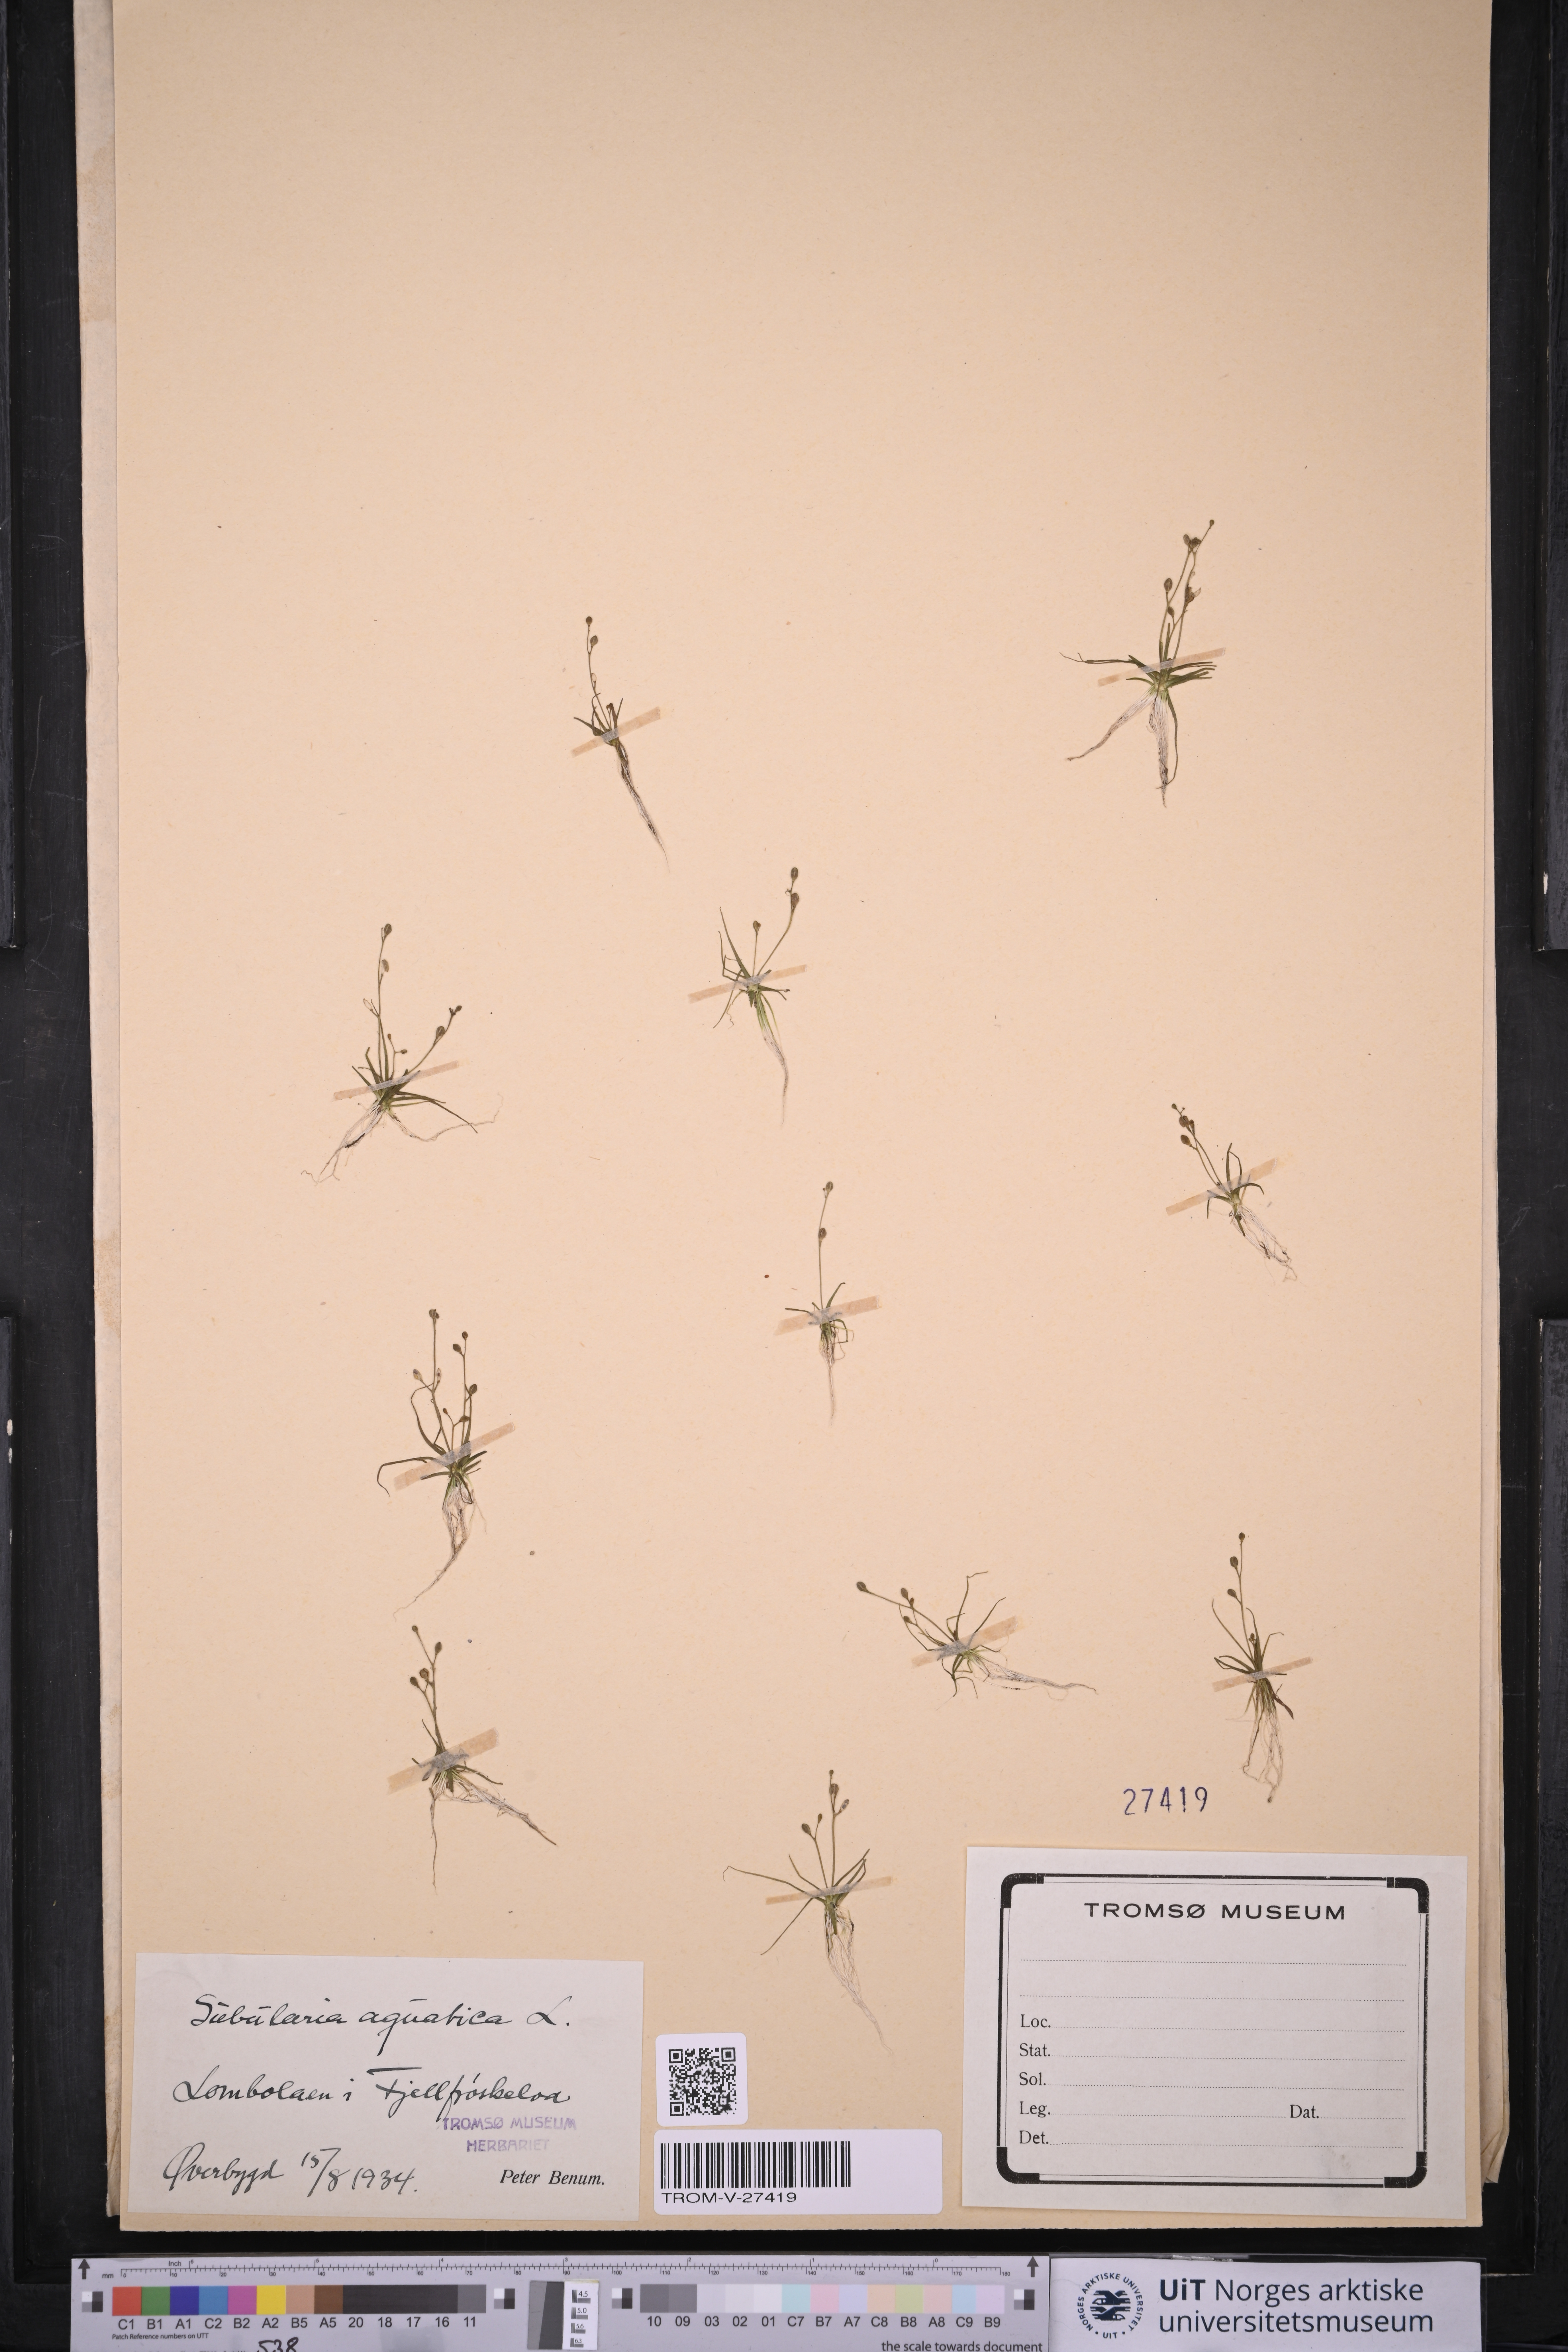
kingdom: Plantae
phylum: Tracheophyta
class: Magnoliopsida
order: Brassicales
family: Brassicaceae
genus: Subularia
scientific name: Subularia aquatica
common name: Awlwort
